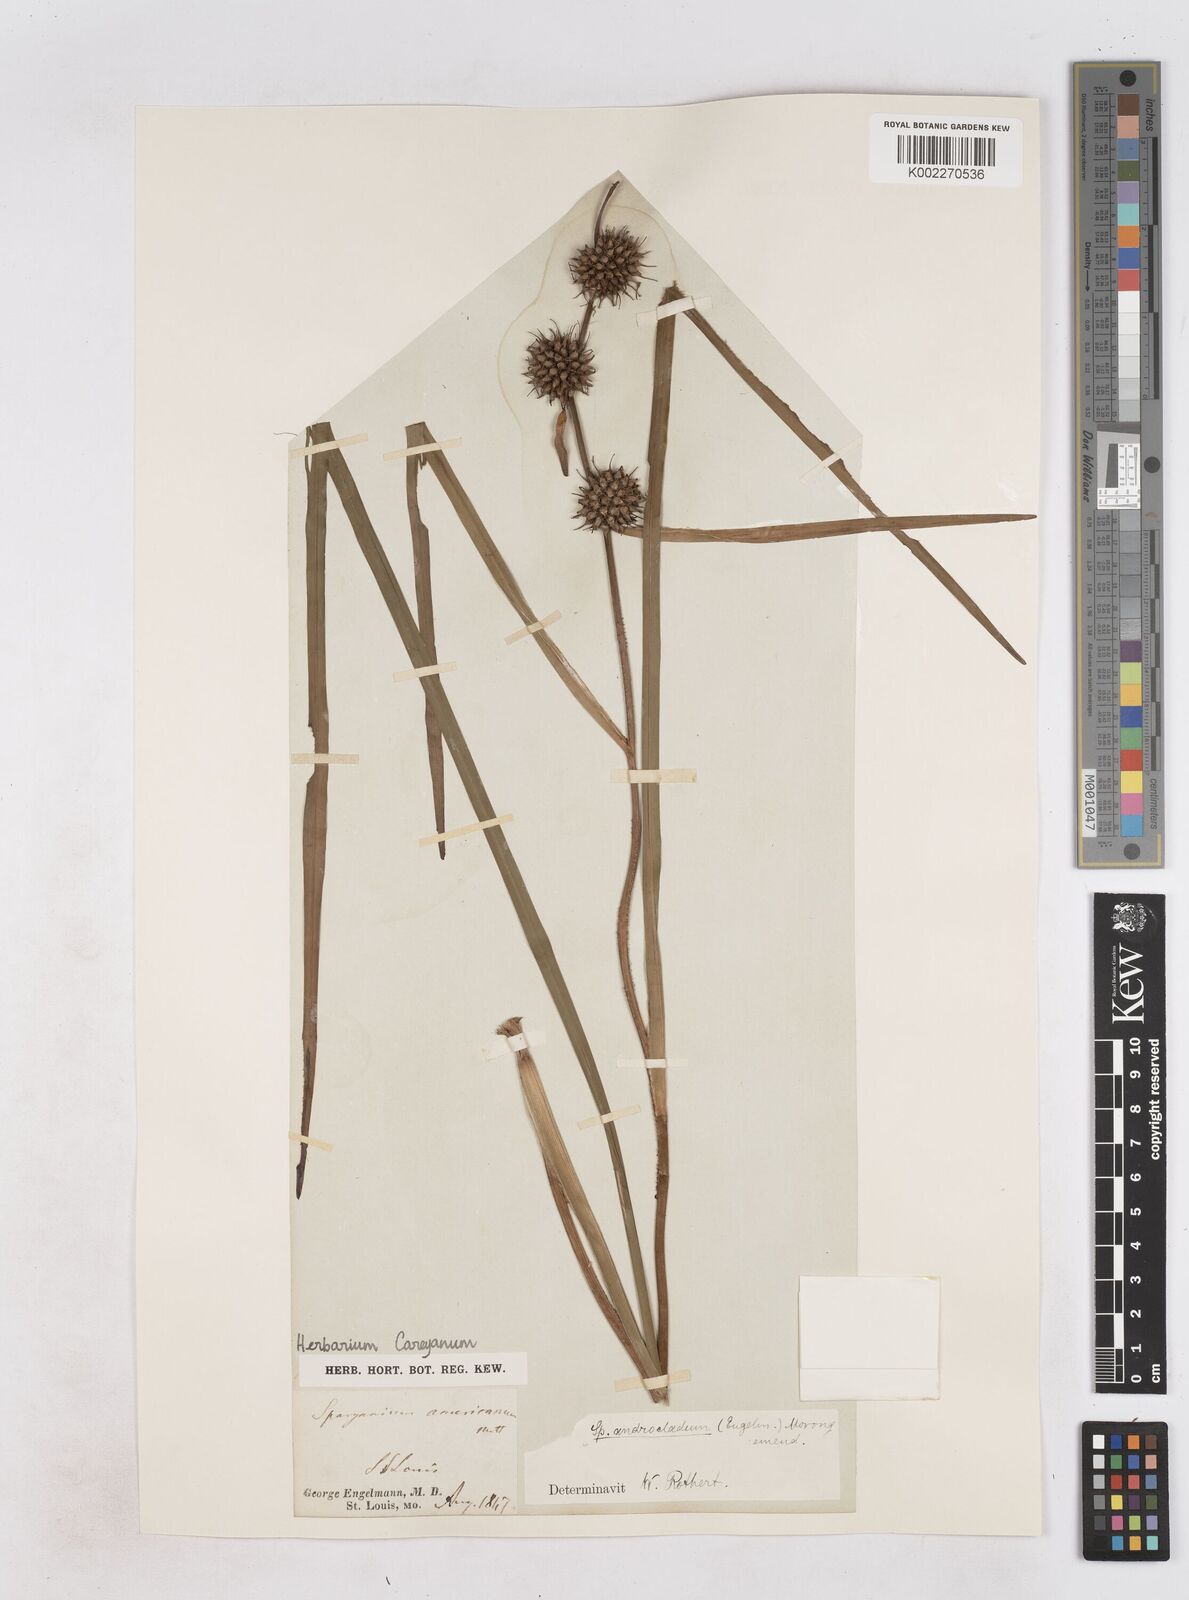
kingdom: Plantae
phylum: Tracheophyta
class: Liliopsida
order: Poales
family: Typhaceae
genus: Sparganium
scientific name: Sparganium androcladum
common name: Branched burreed
